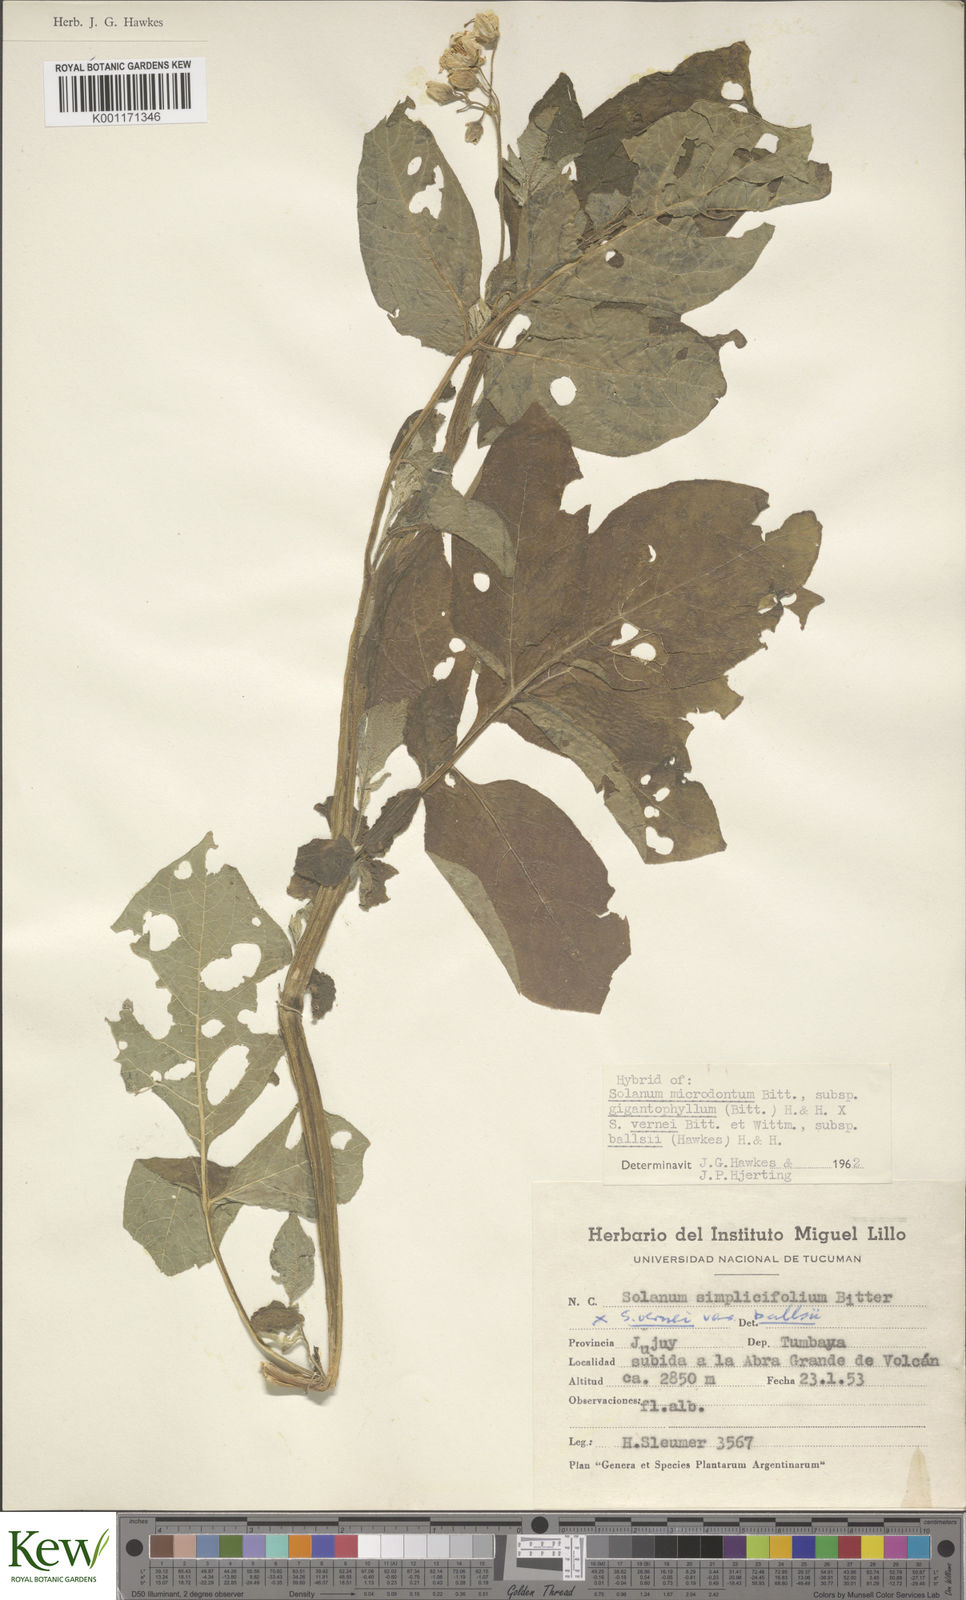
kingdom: Plantae
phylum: Tracheophyta
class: Magnoliopsida
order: Solanales
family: Solanaceae
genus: Solanum
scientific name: Solanum microdontum
